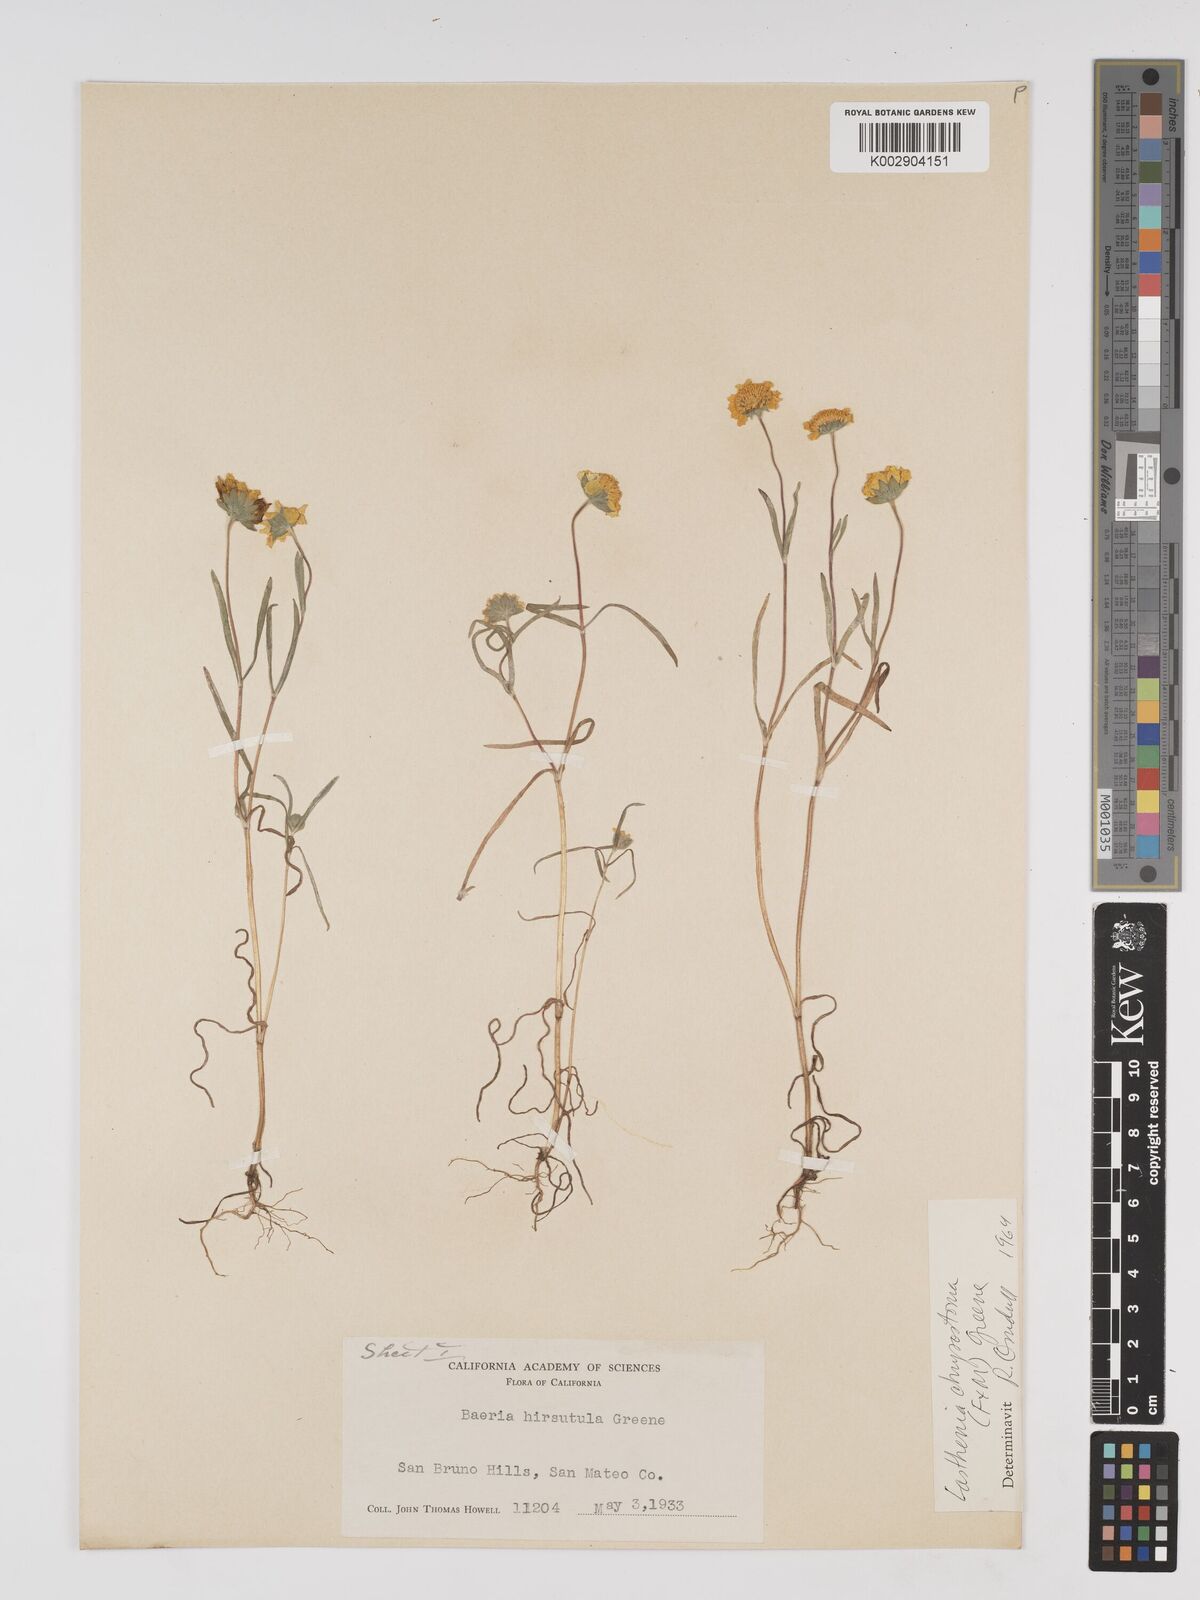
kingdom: Plantae
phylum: Tracheophyta
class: Magnoliopsida
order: Asterales
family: Asteraceae
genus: Lasthenia
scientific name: Lasthenia californica
